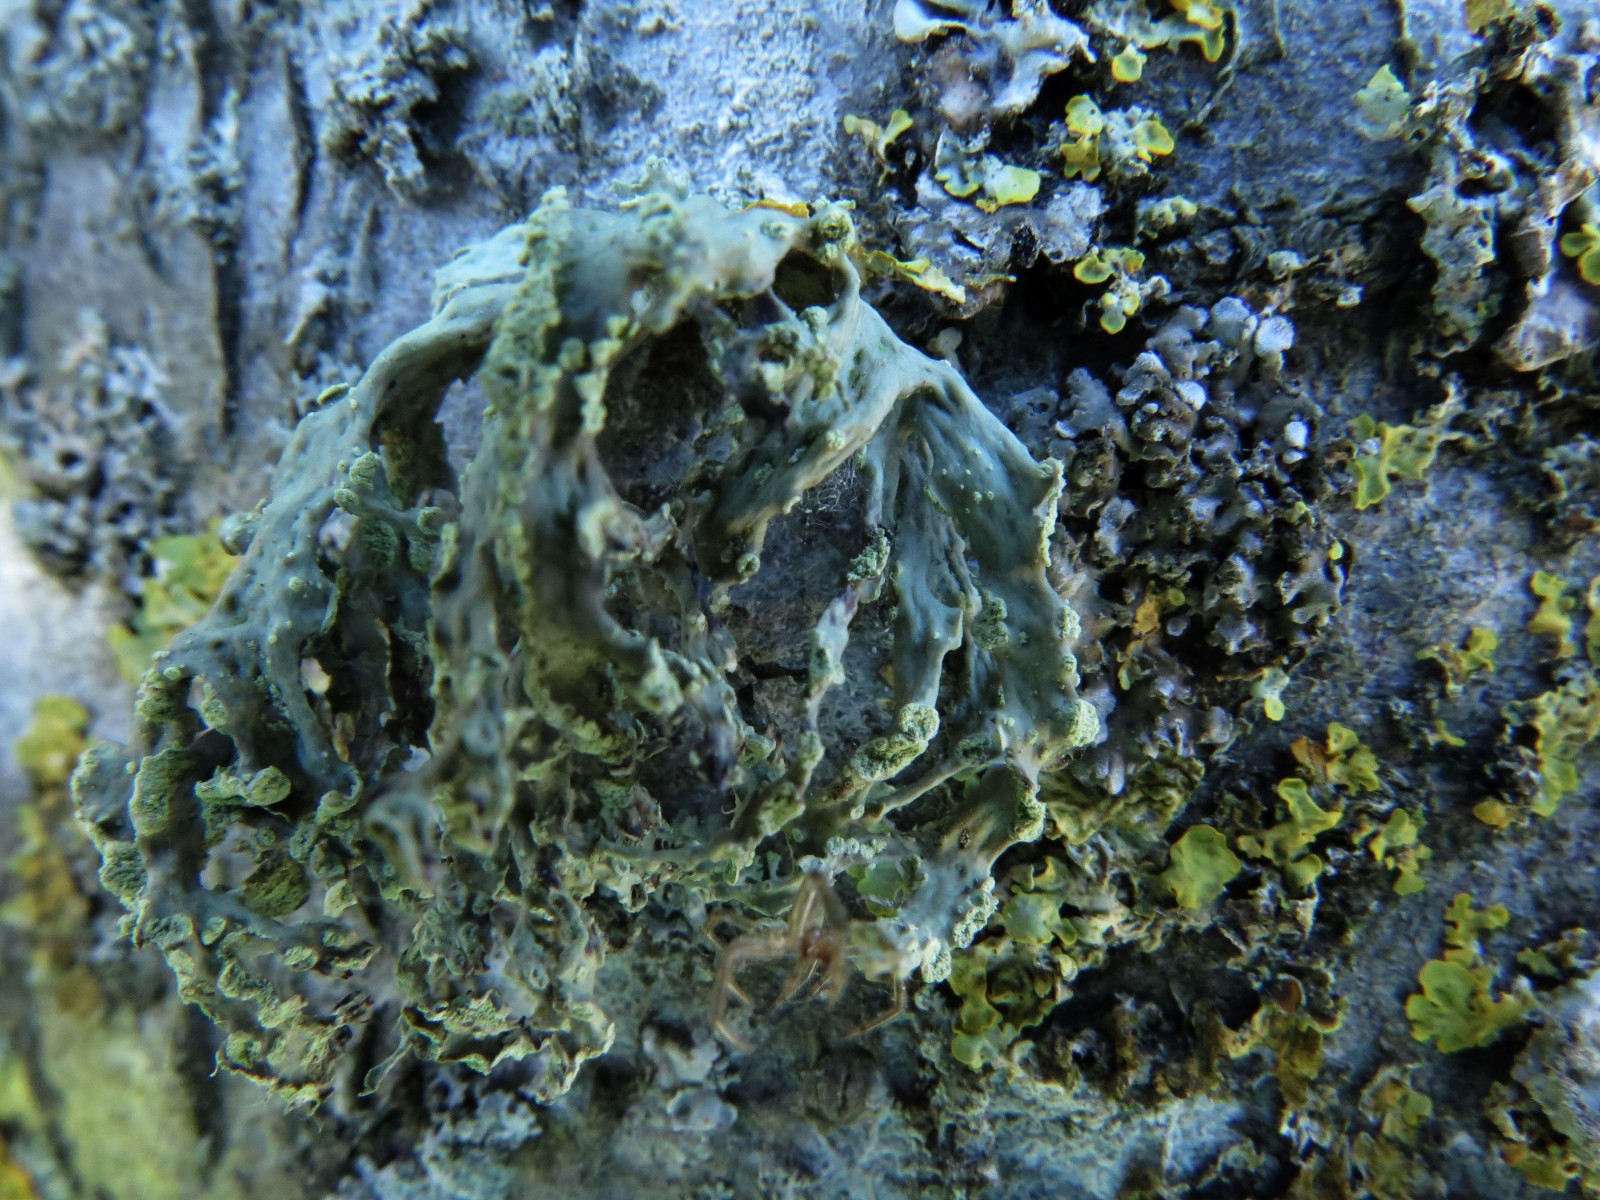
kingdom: Fungi
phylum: Ascomycota
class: Lecanoromycetes
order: Lecanorales
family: Ramalinaceae
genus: Ramalina
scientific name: Ramalina fastigiata
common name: tue-grenlav
